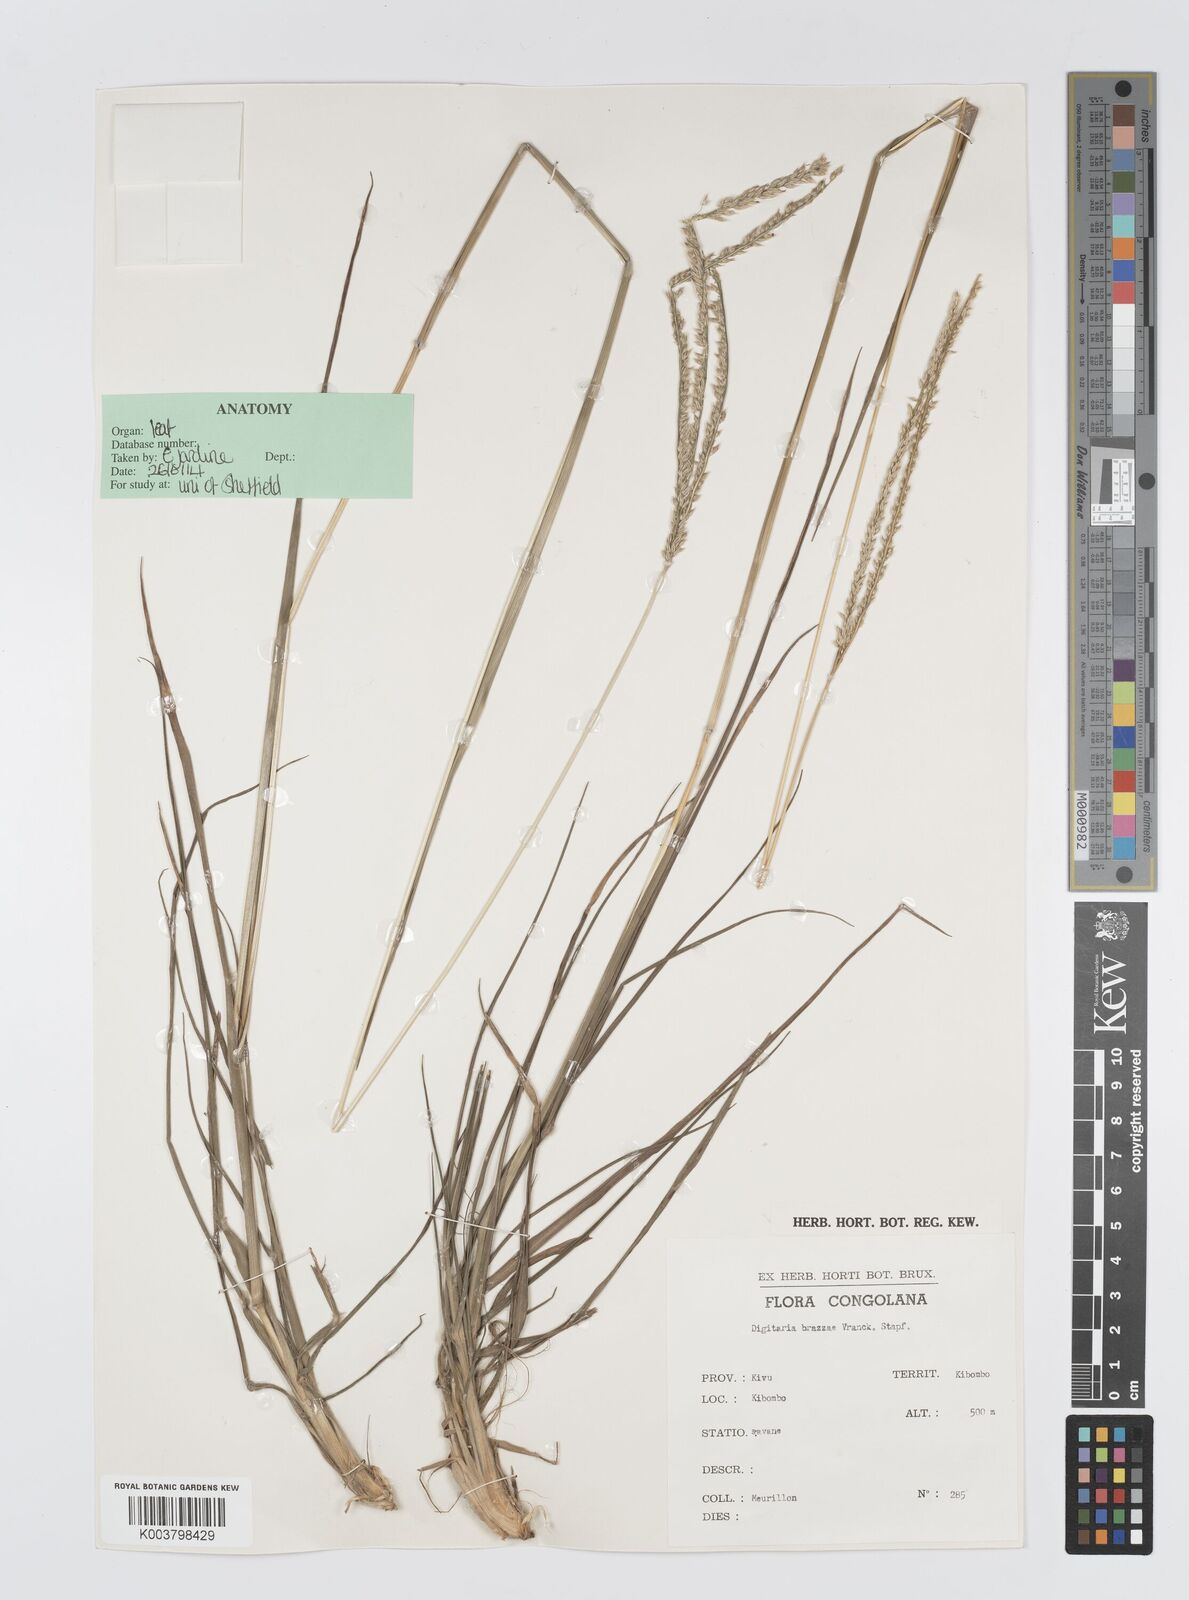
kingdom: Plantae
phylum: Tracheophyta
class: Liliopsida
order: Poales
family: Poaceae
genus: Digitaria
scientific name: Digitaria brazzae
